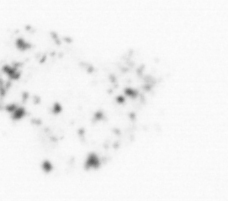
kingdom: Chromista
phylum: Ochrophyta
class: Bacillariophyceae
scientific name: Bacillariophyceae
